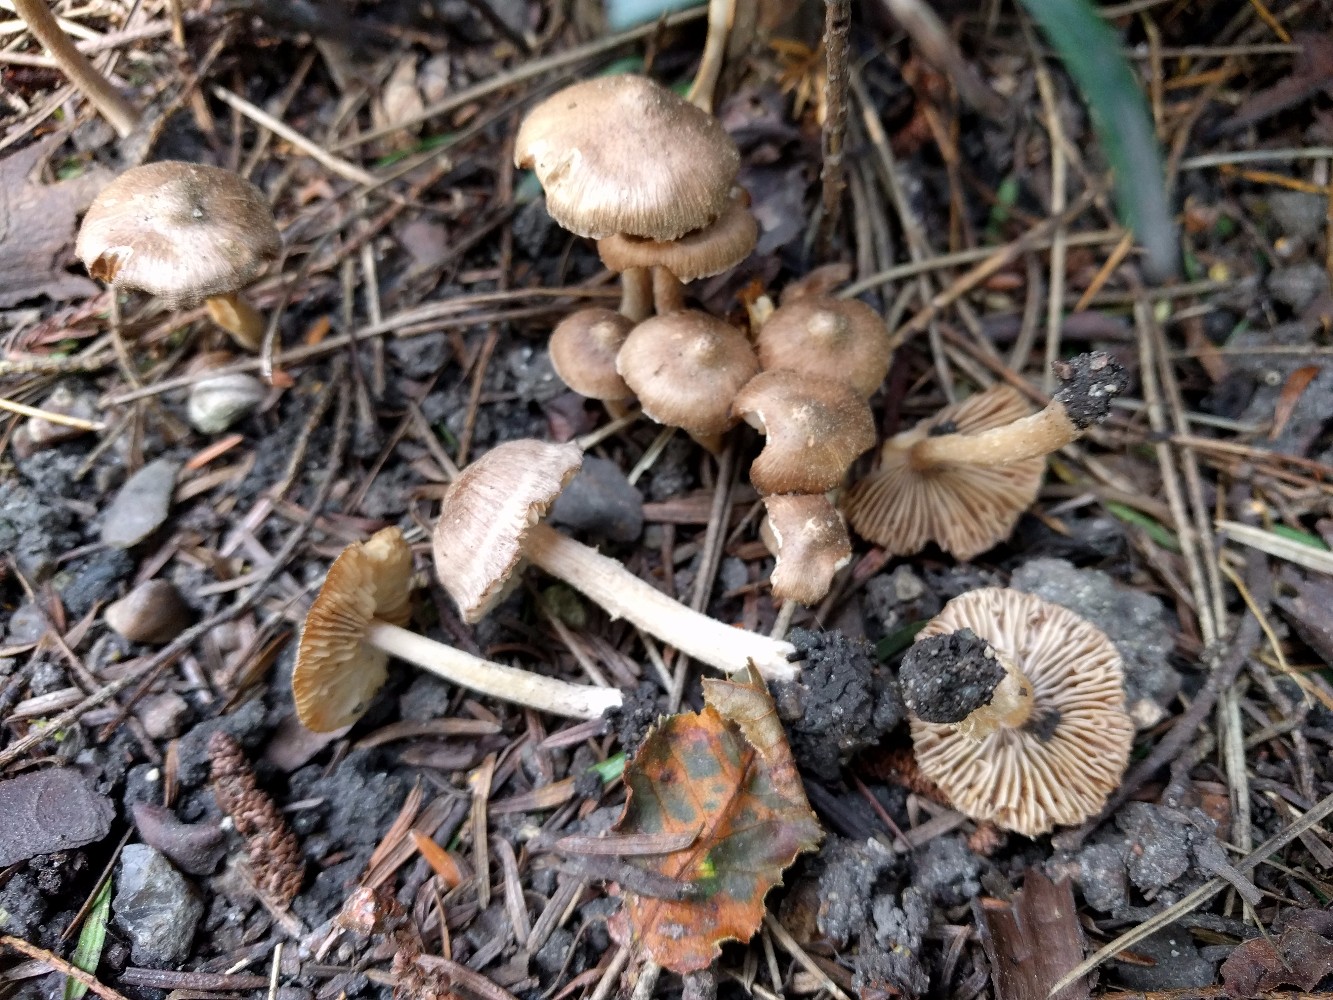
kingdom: Fungi
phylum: Basidiomycota
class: Agaricomycetes
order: Agaricales
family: Inocybaceae
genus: Inocybe
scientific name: Inocybe
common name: trævlhat
